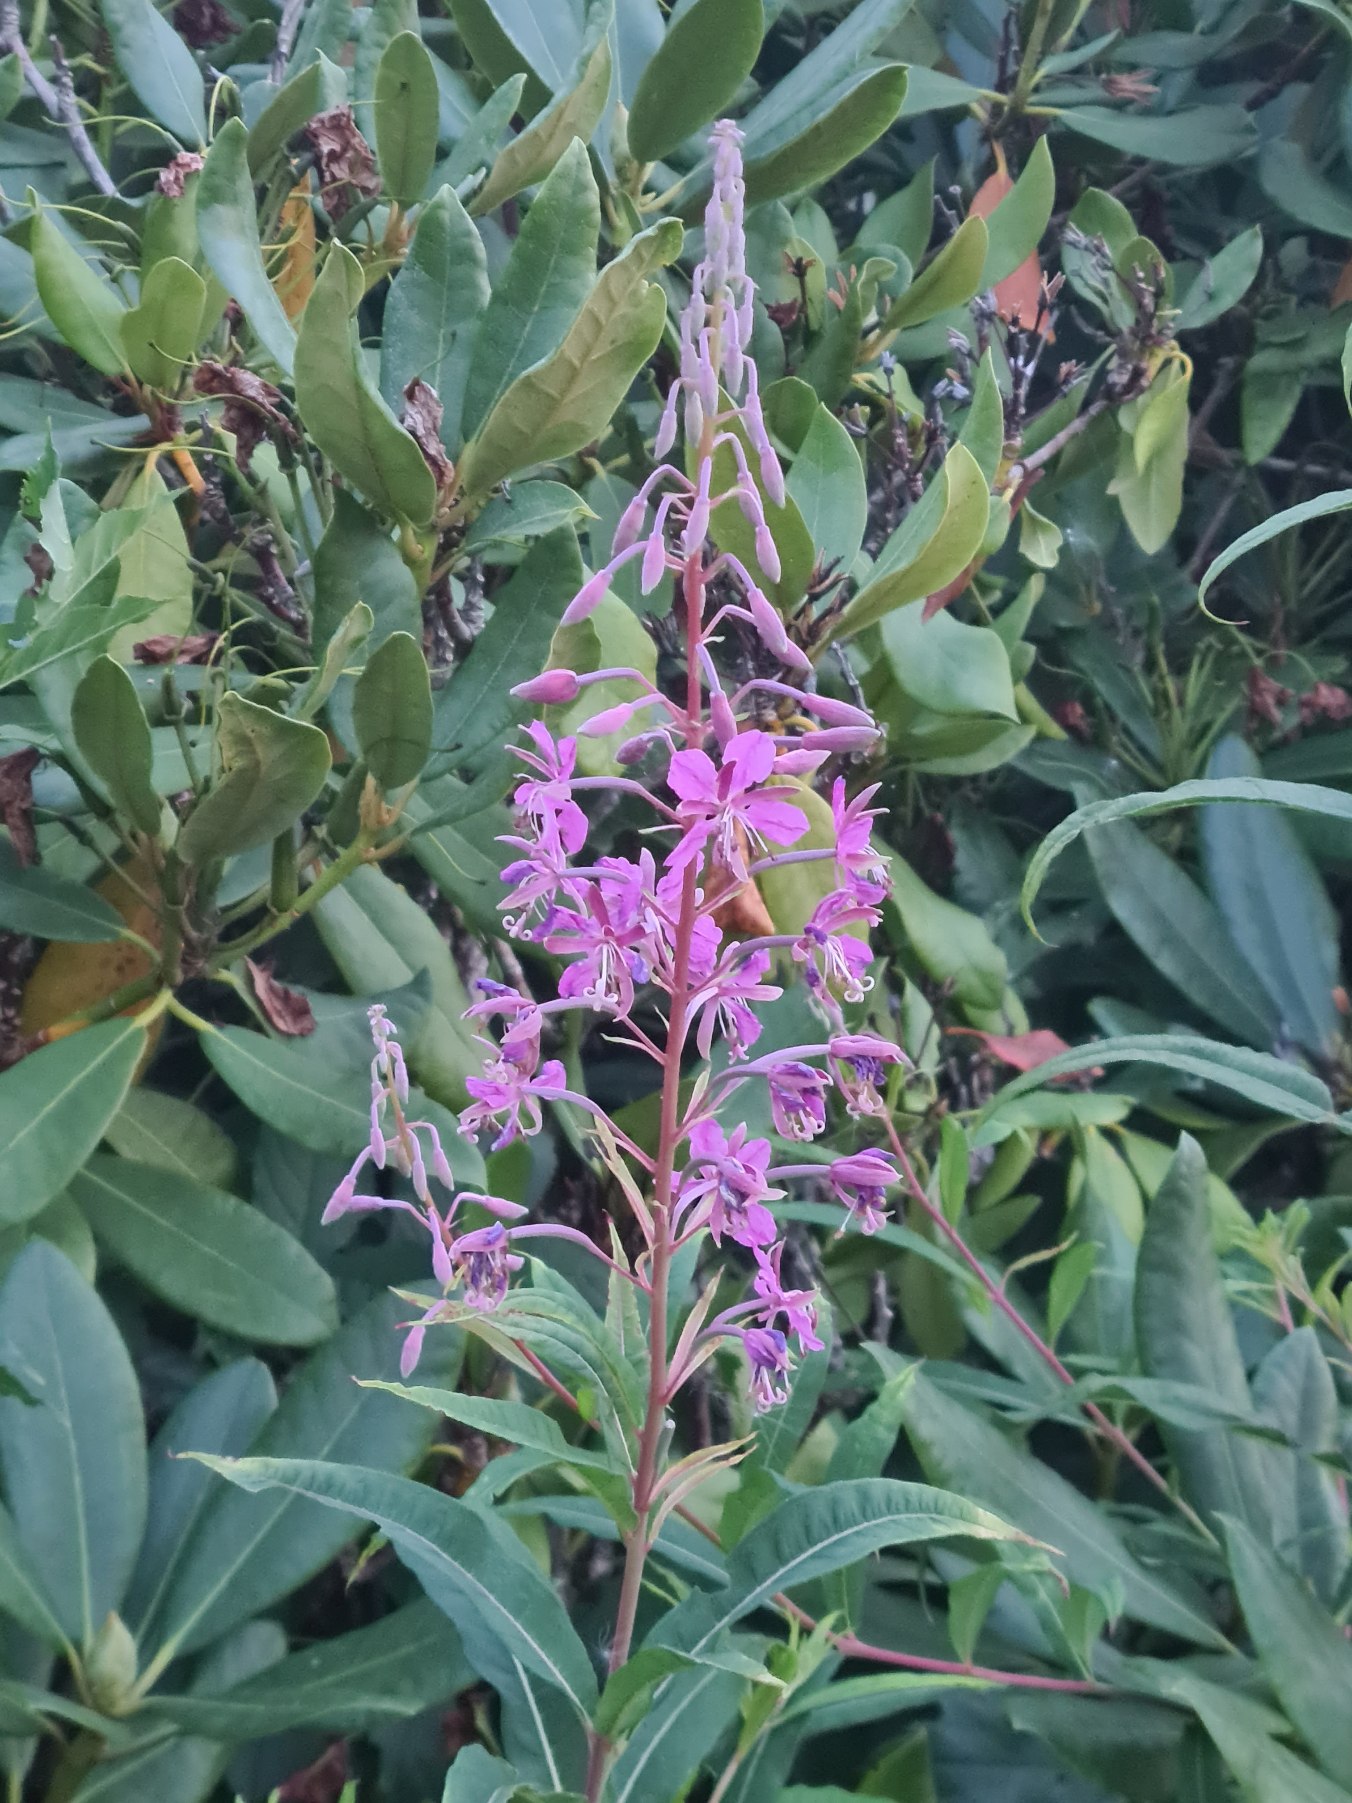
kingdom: Plantae
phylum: Tracheophyta
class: Magnoliopsida
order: Myrtales
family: Onagraceae
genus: Chamaenerion
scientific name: Chamaenerion angustifolium
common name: Gederams
